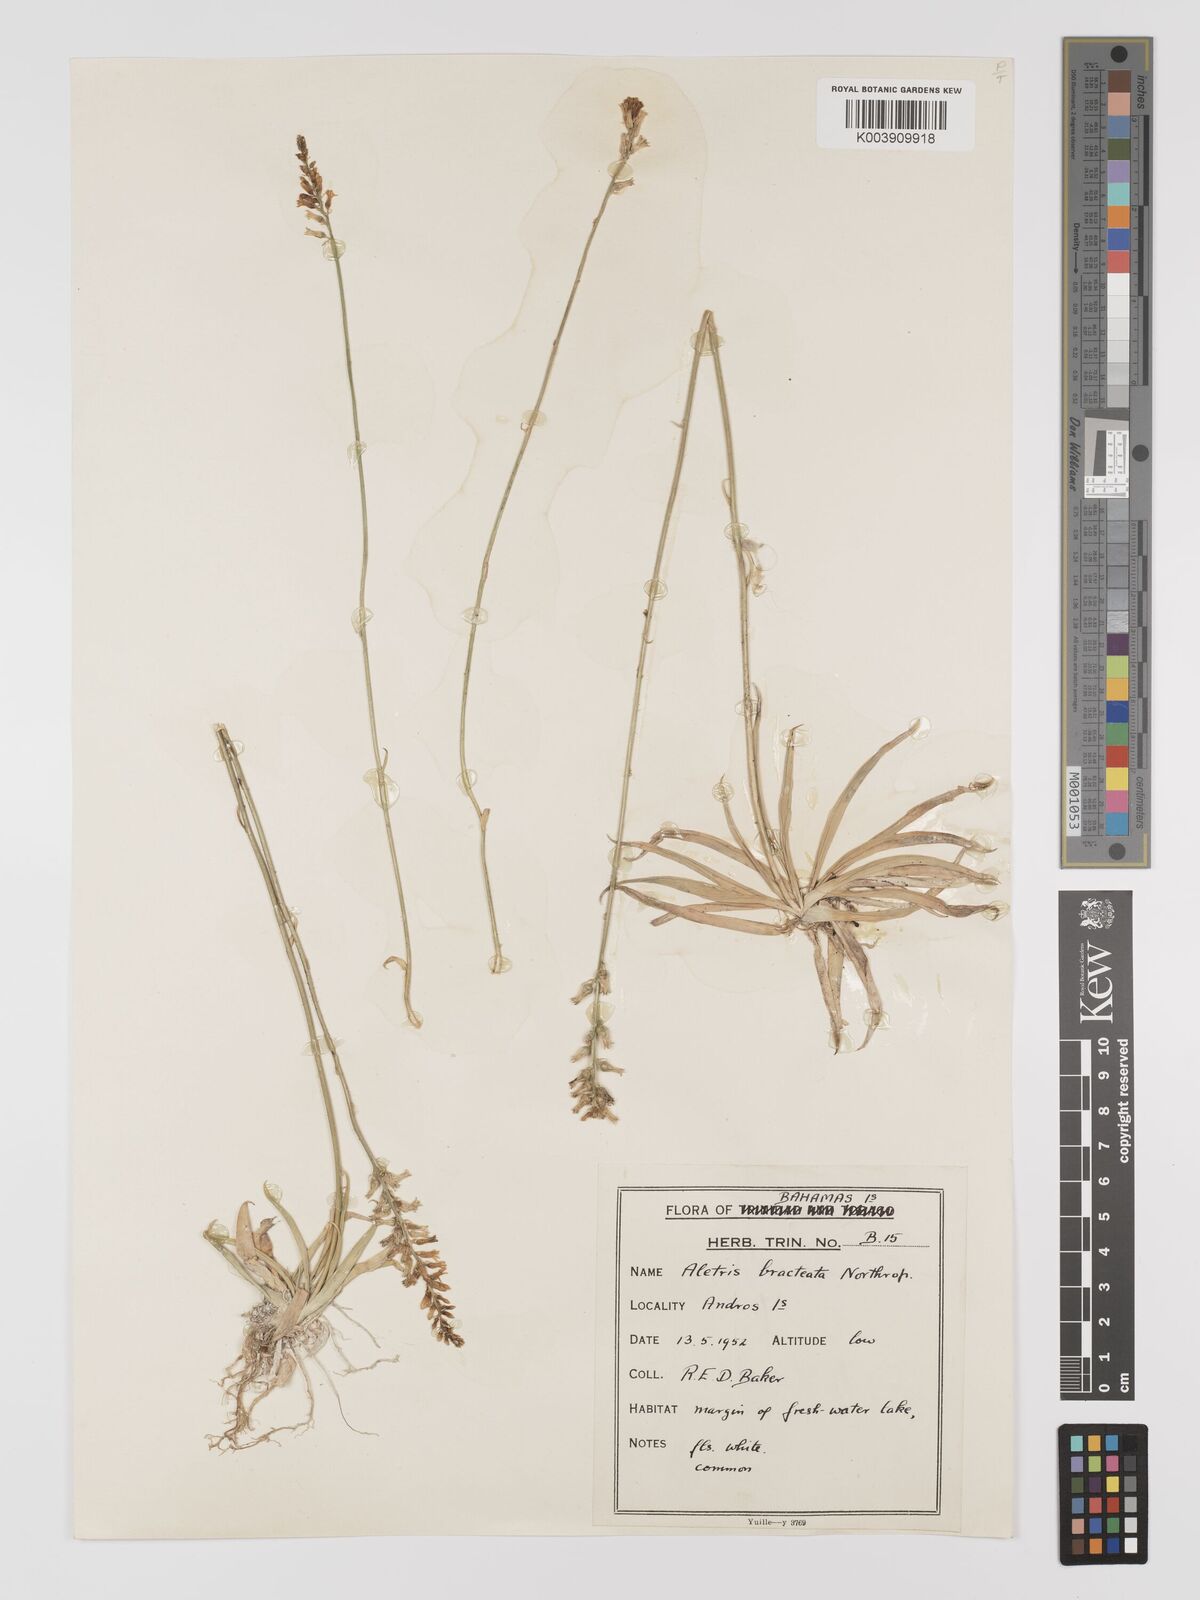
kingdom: Plantae
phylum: Tracheophyta
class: Liliopsida
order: Dioscoreales
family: Nartheciaceae
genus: Aletris
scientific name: Aletris bracteata
